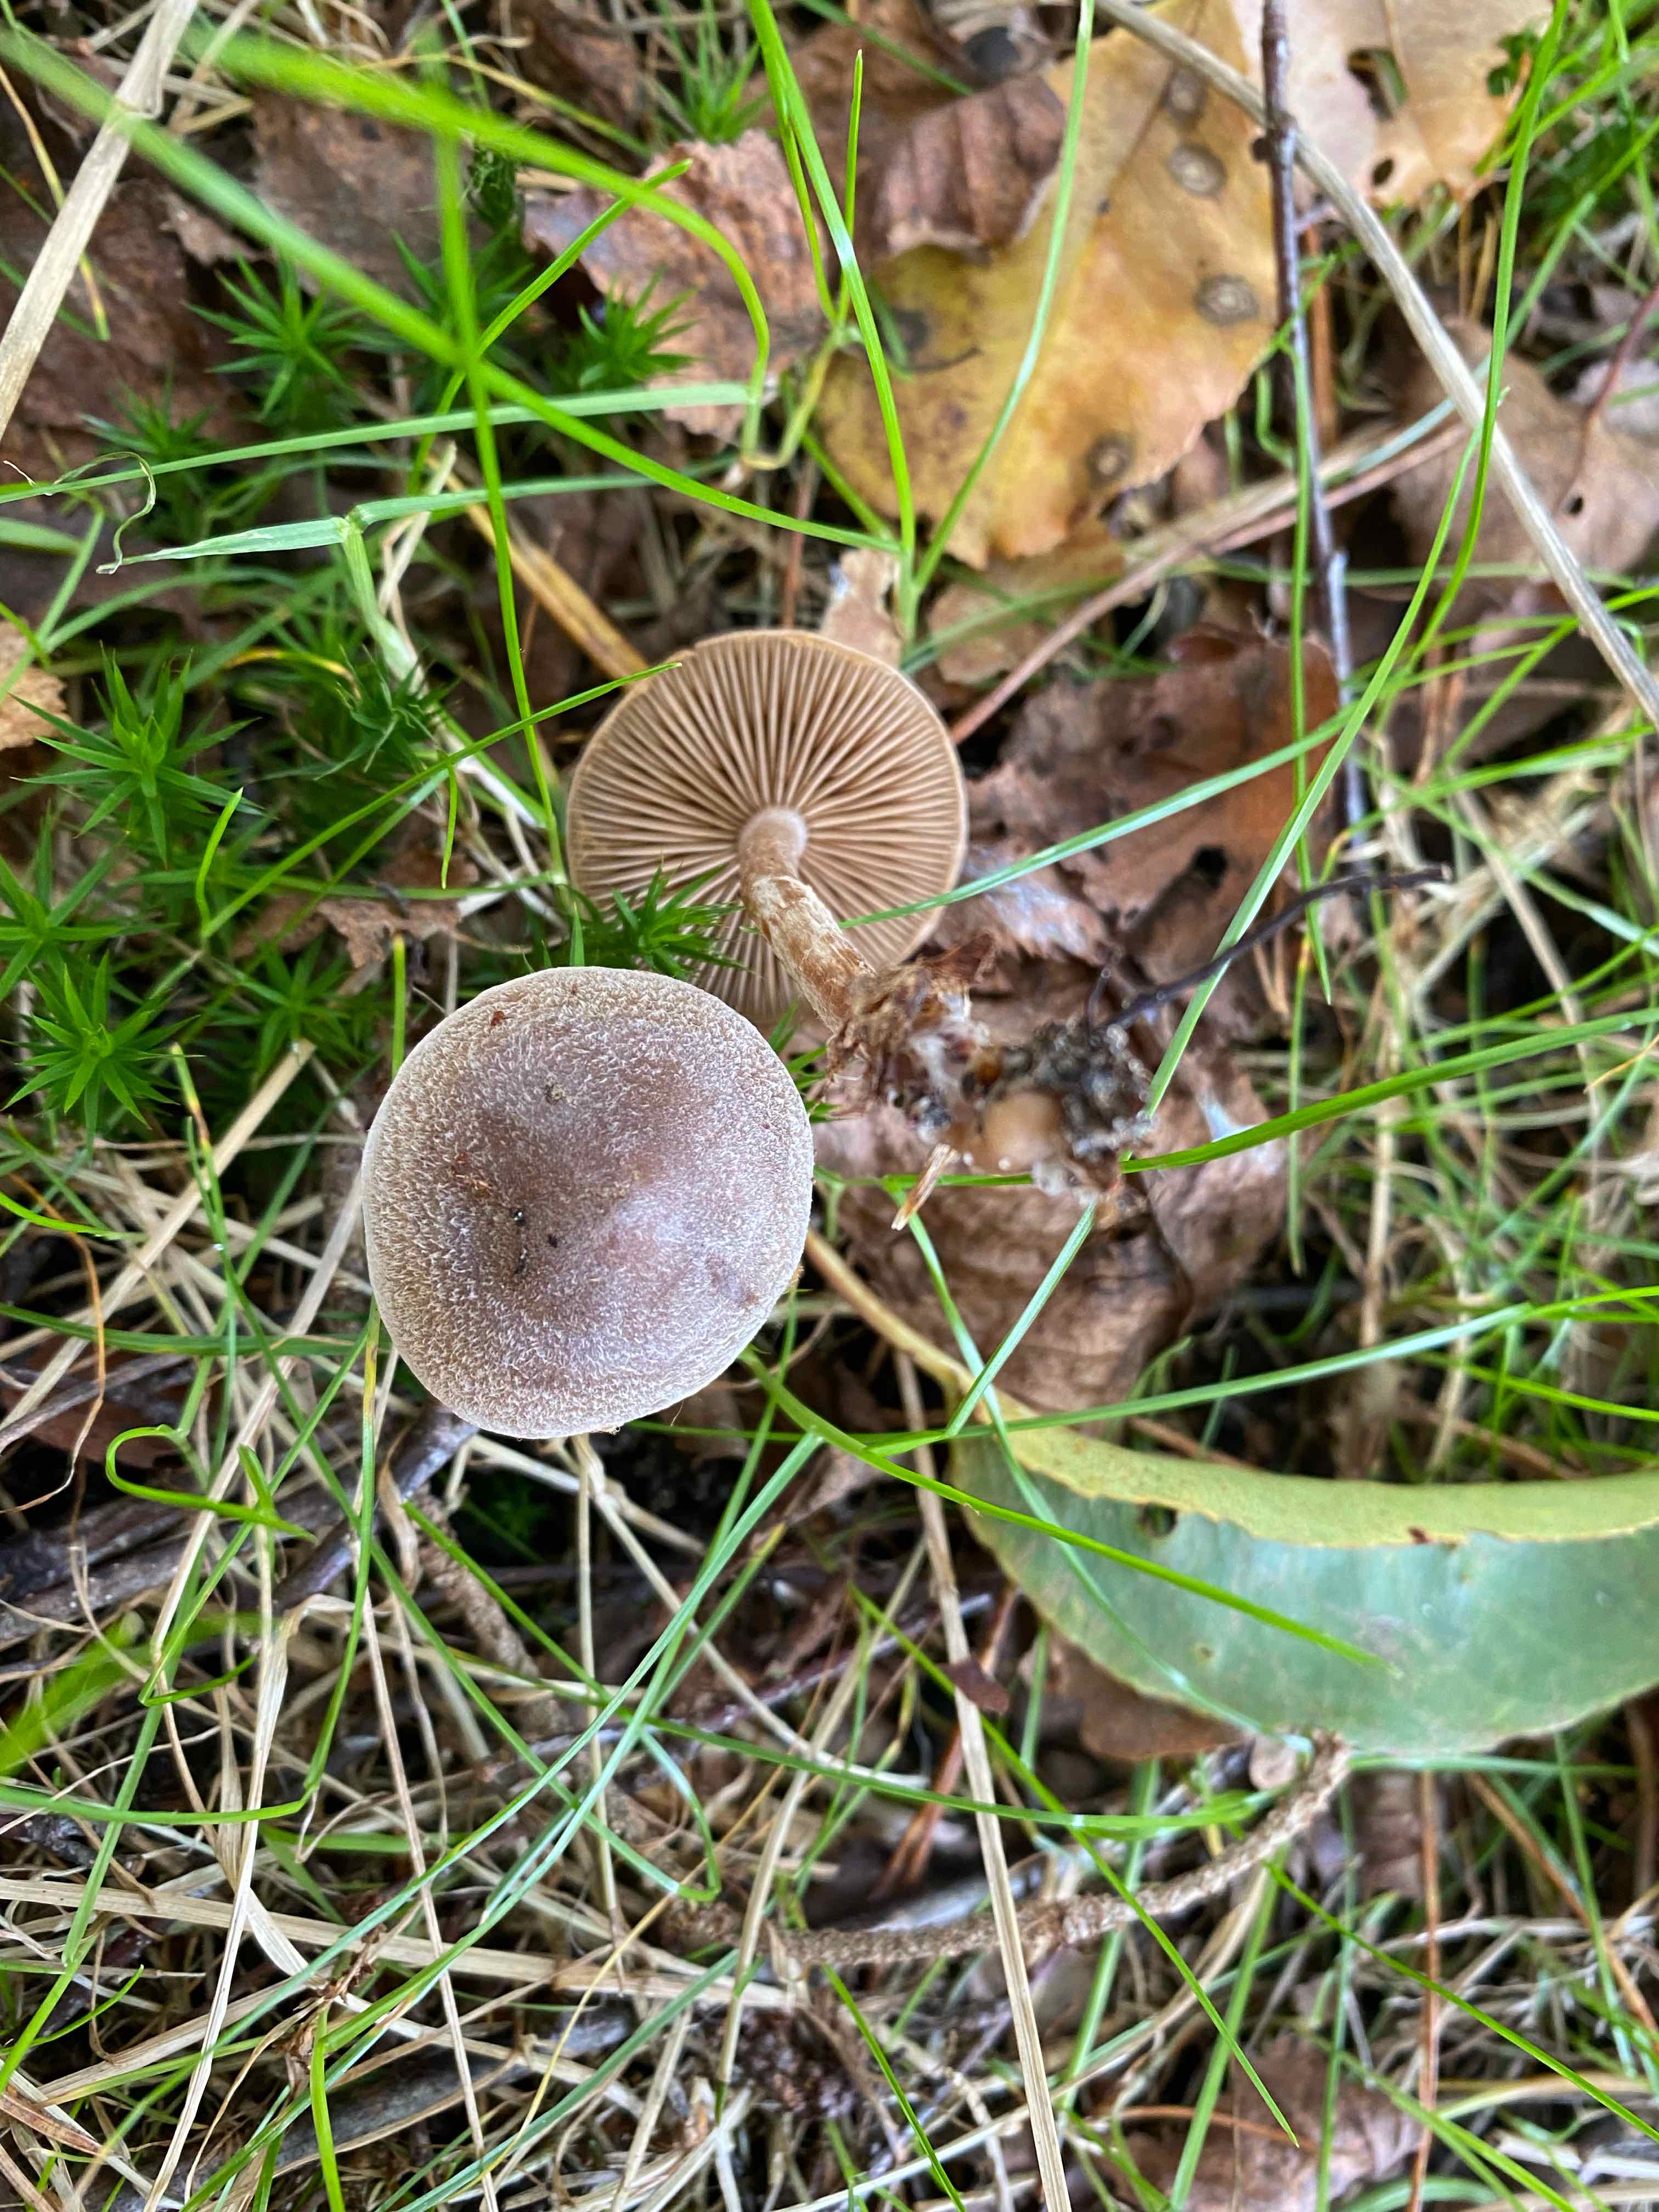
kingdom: Fungi
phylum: Basidiomycota
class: Agaricomycetes
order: Agaricales
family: Cortinariaceae
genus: Cortinarius
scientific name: Cortinarius hemitrichus
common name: hvidfnugget slørhat
